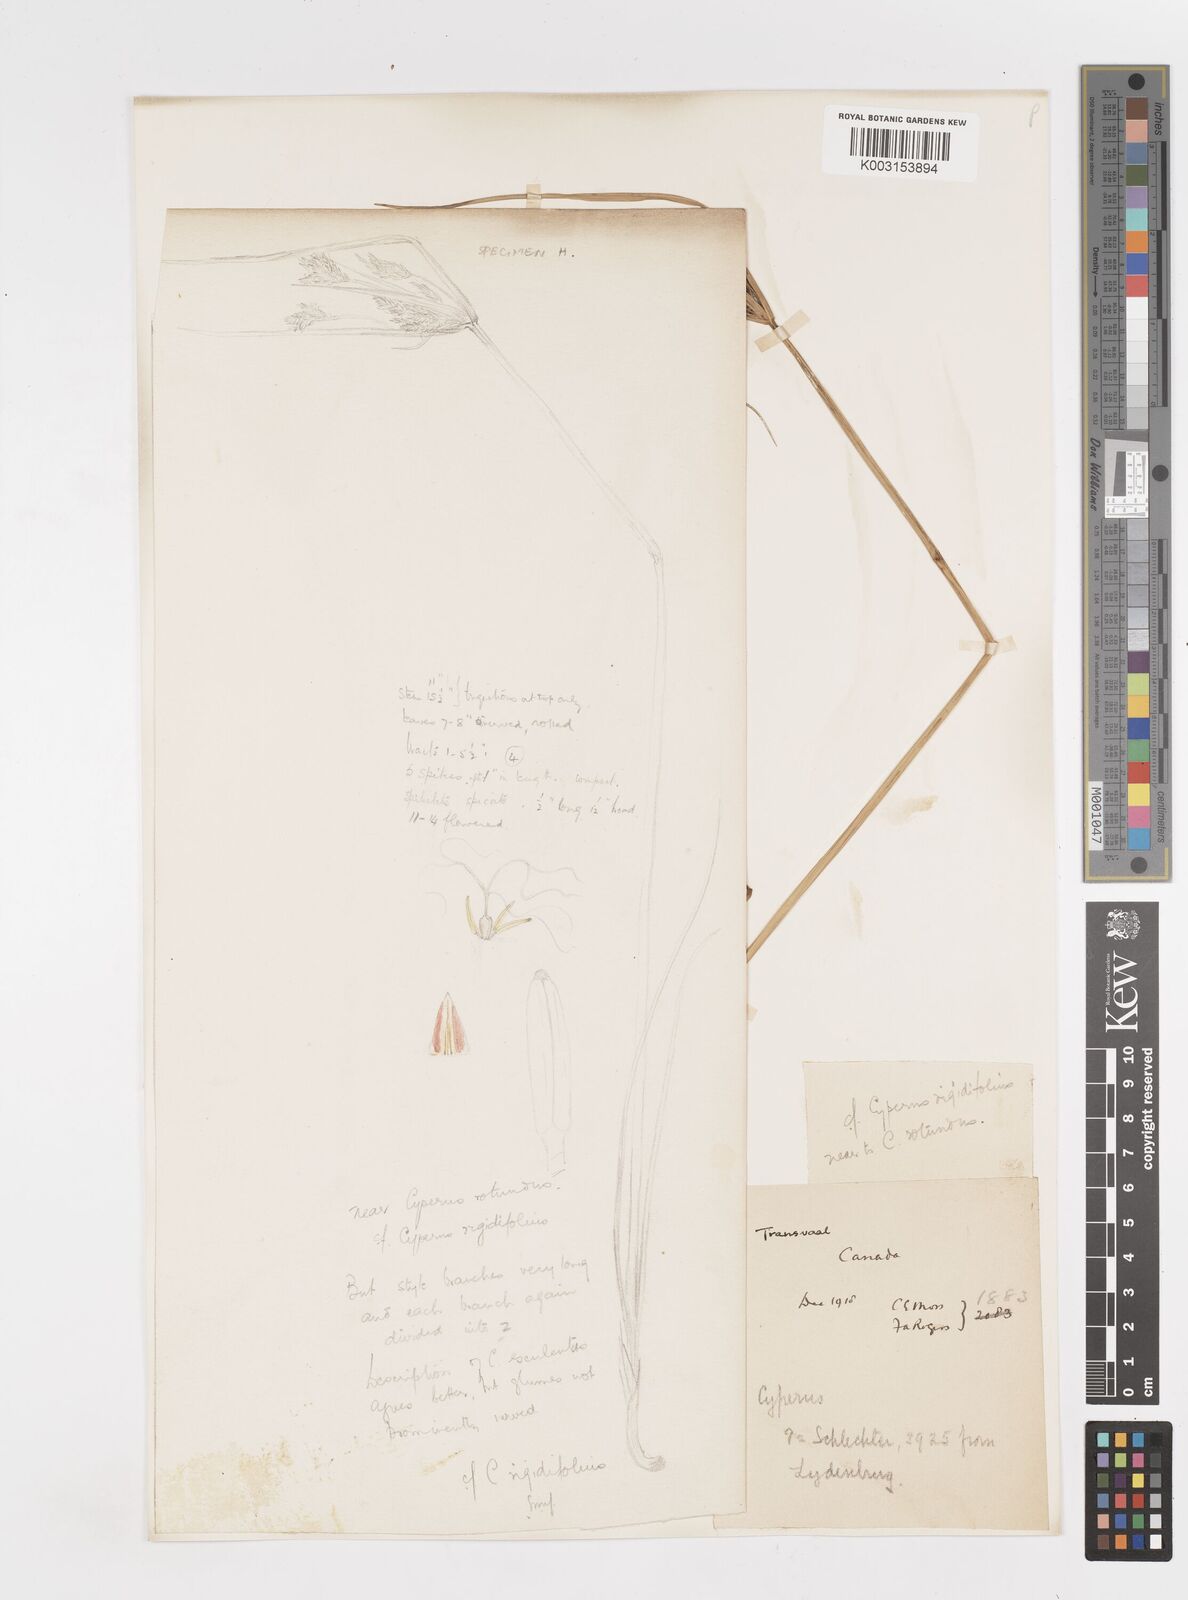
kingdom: Plantae
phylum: Tracheophyta
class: Liliopsida
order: Poales
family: Cyperaceae
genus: Cyperus
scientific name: Cyperus
